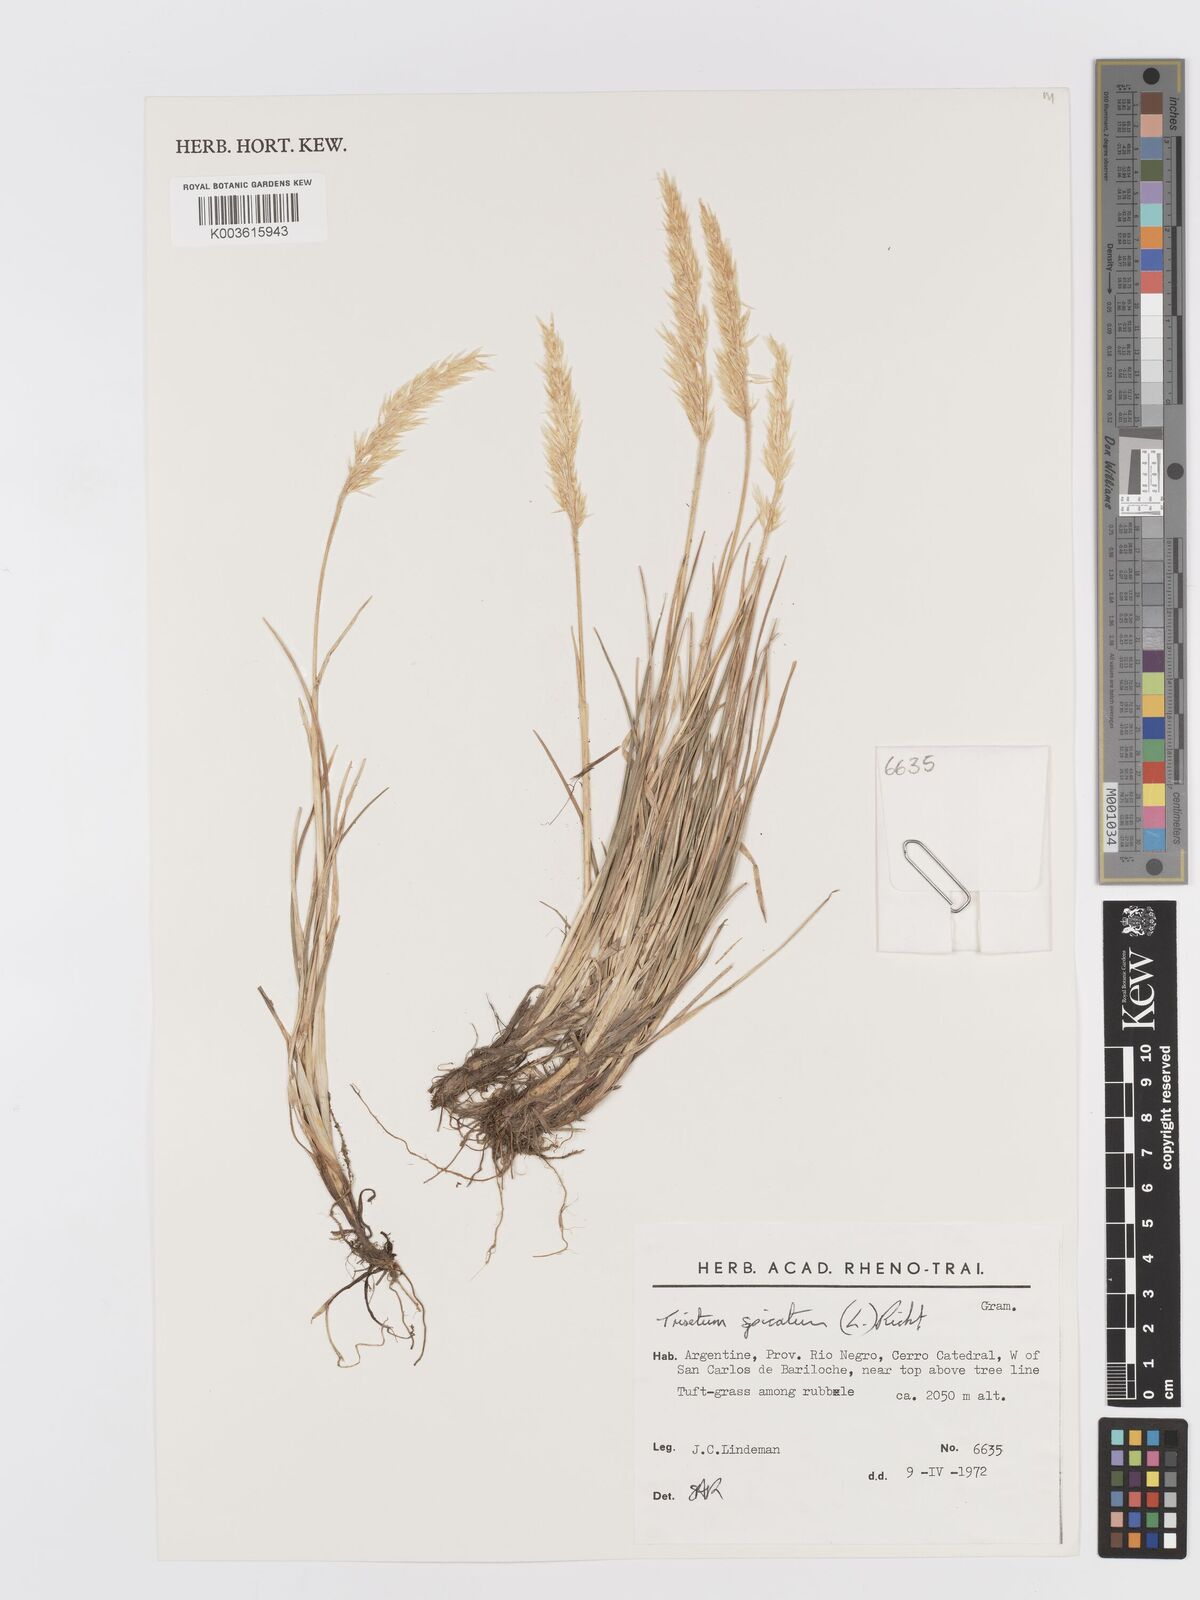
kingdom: Plantae
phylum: Tracheophyta
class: Liliopsida
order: Poales
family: Poaceae
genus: Koeleria
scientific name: Koeleria spicata
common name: Mountain trisetum
